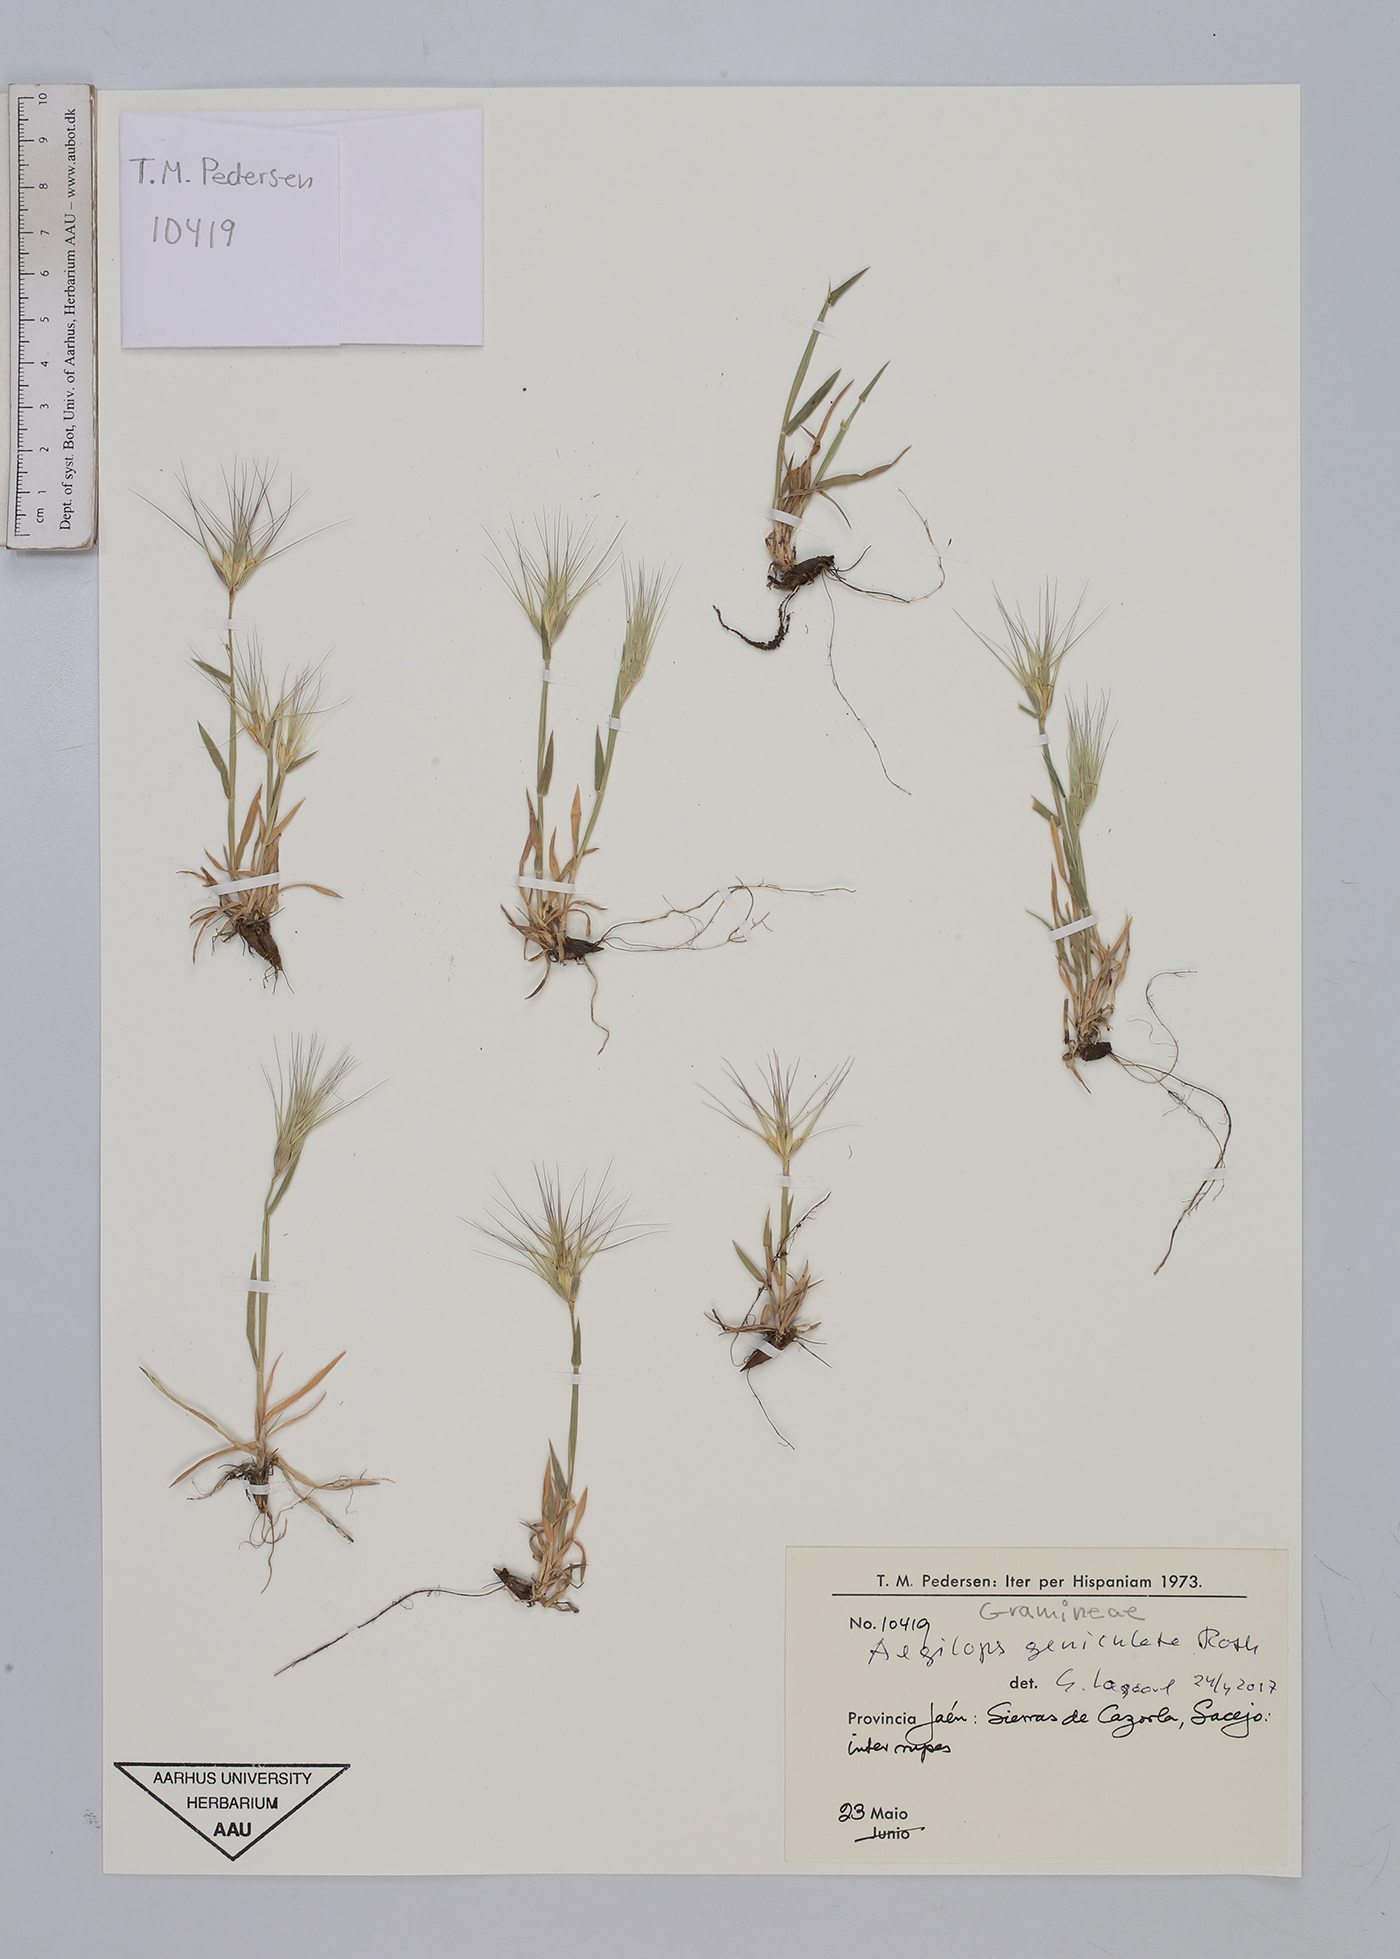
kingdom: Plantae
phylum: Tracheophyta
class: Liliopsida
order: Poales
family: Poaceae
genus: Aegilops
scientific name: Aegilops geniculata
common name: Ovate goat grass
